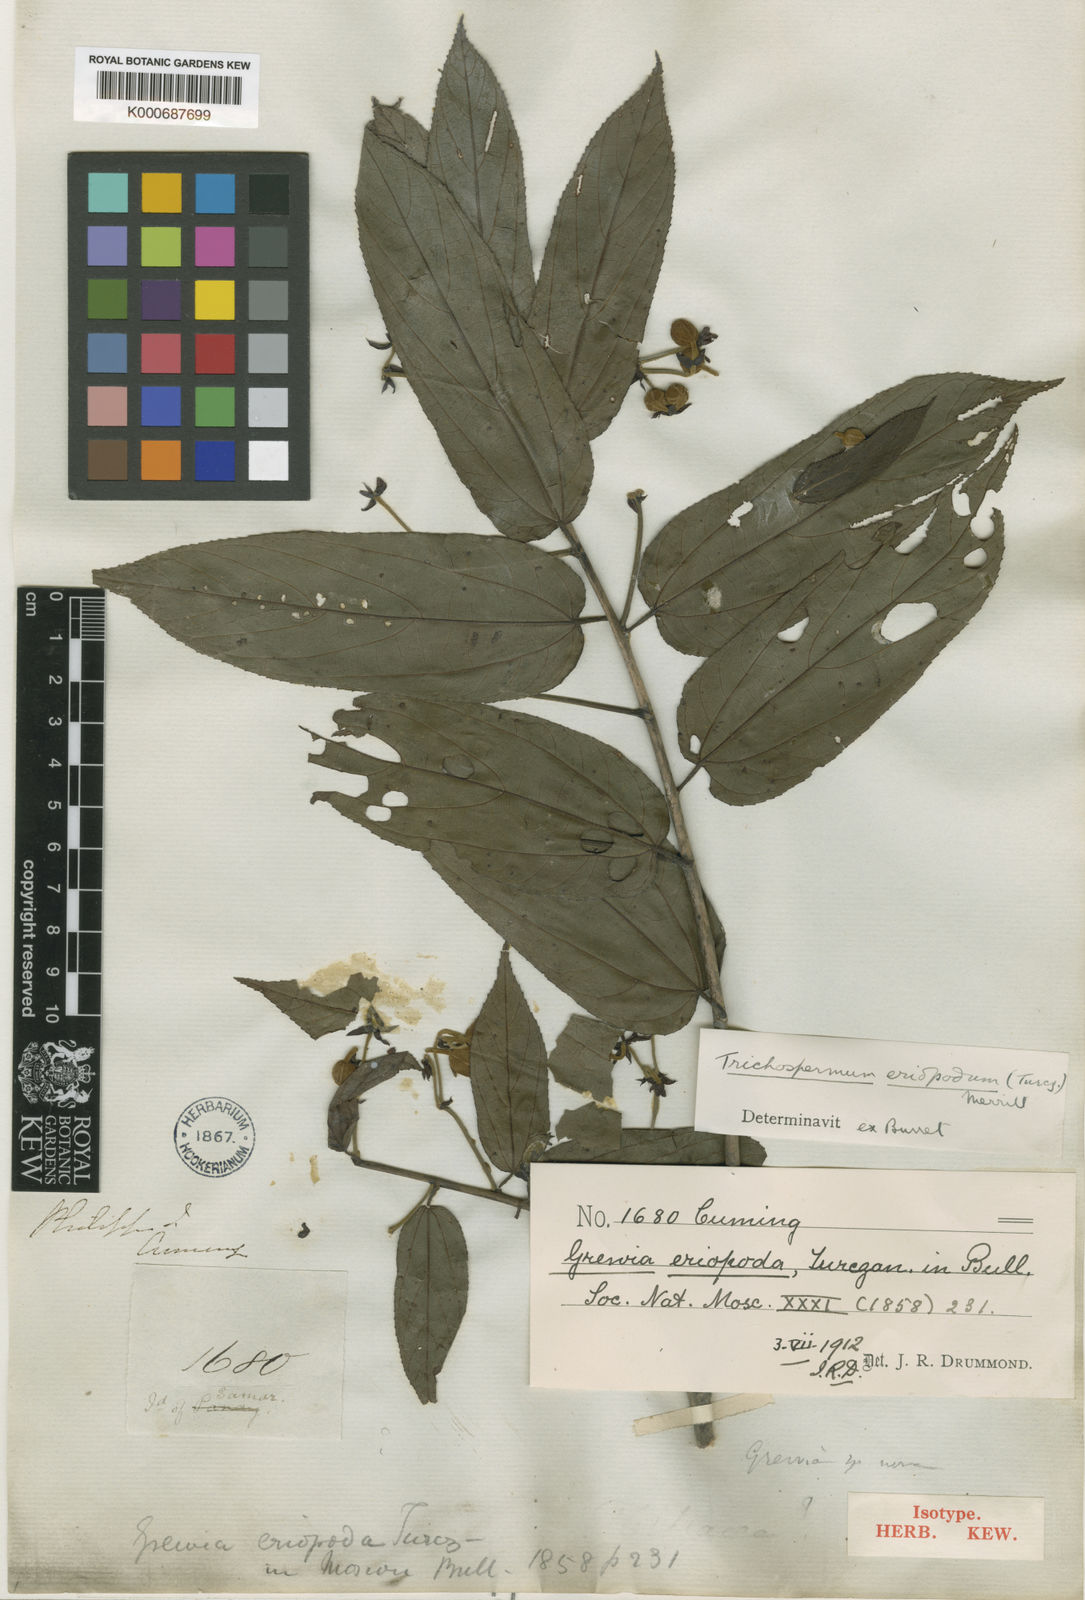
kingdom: Plantae
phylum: Tracheophyta
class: Magnoliopsida
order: Malvales
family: Malvaceae
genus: Trichospermum
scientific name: Trichospermum eriopodum
